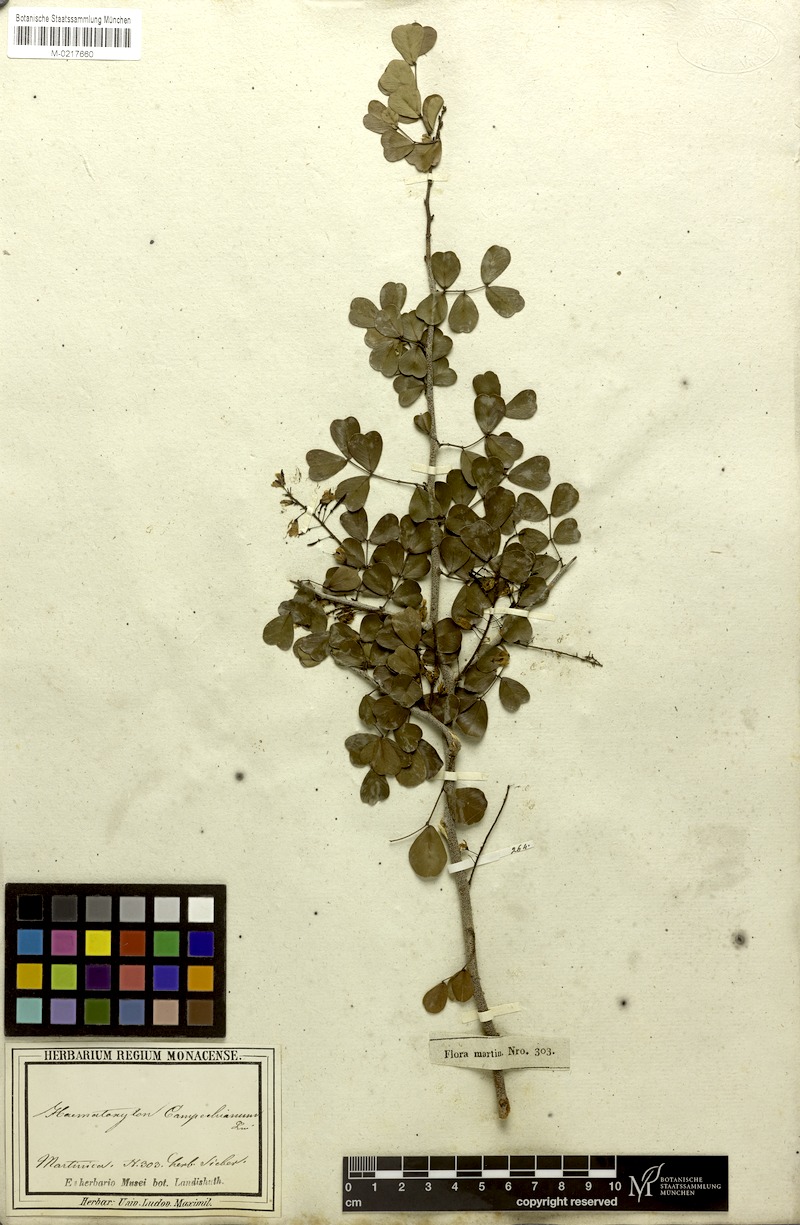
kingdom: Plantae
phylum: Tracheophyta
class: Magnoliopsida
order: Fabales
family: Fabaceae
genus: Haematoxylum
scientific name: Haematoxylum campechianum
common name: Logwood
